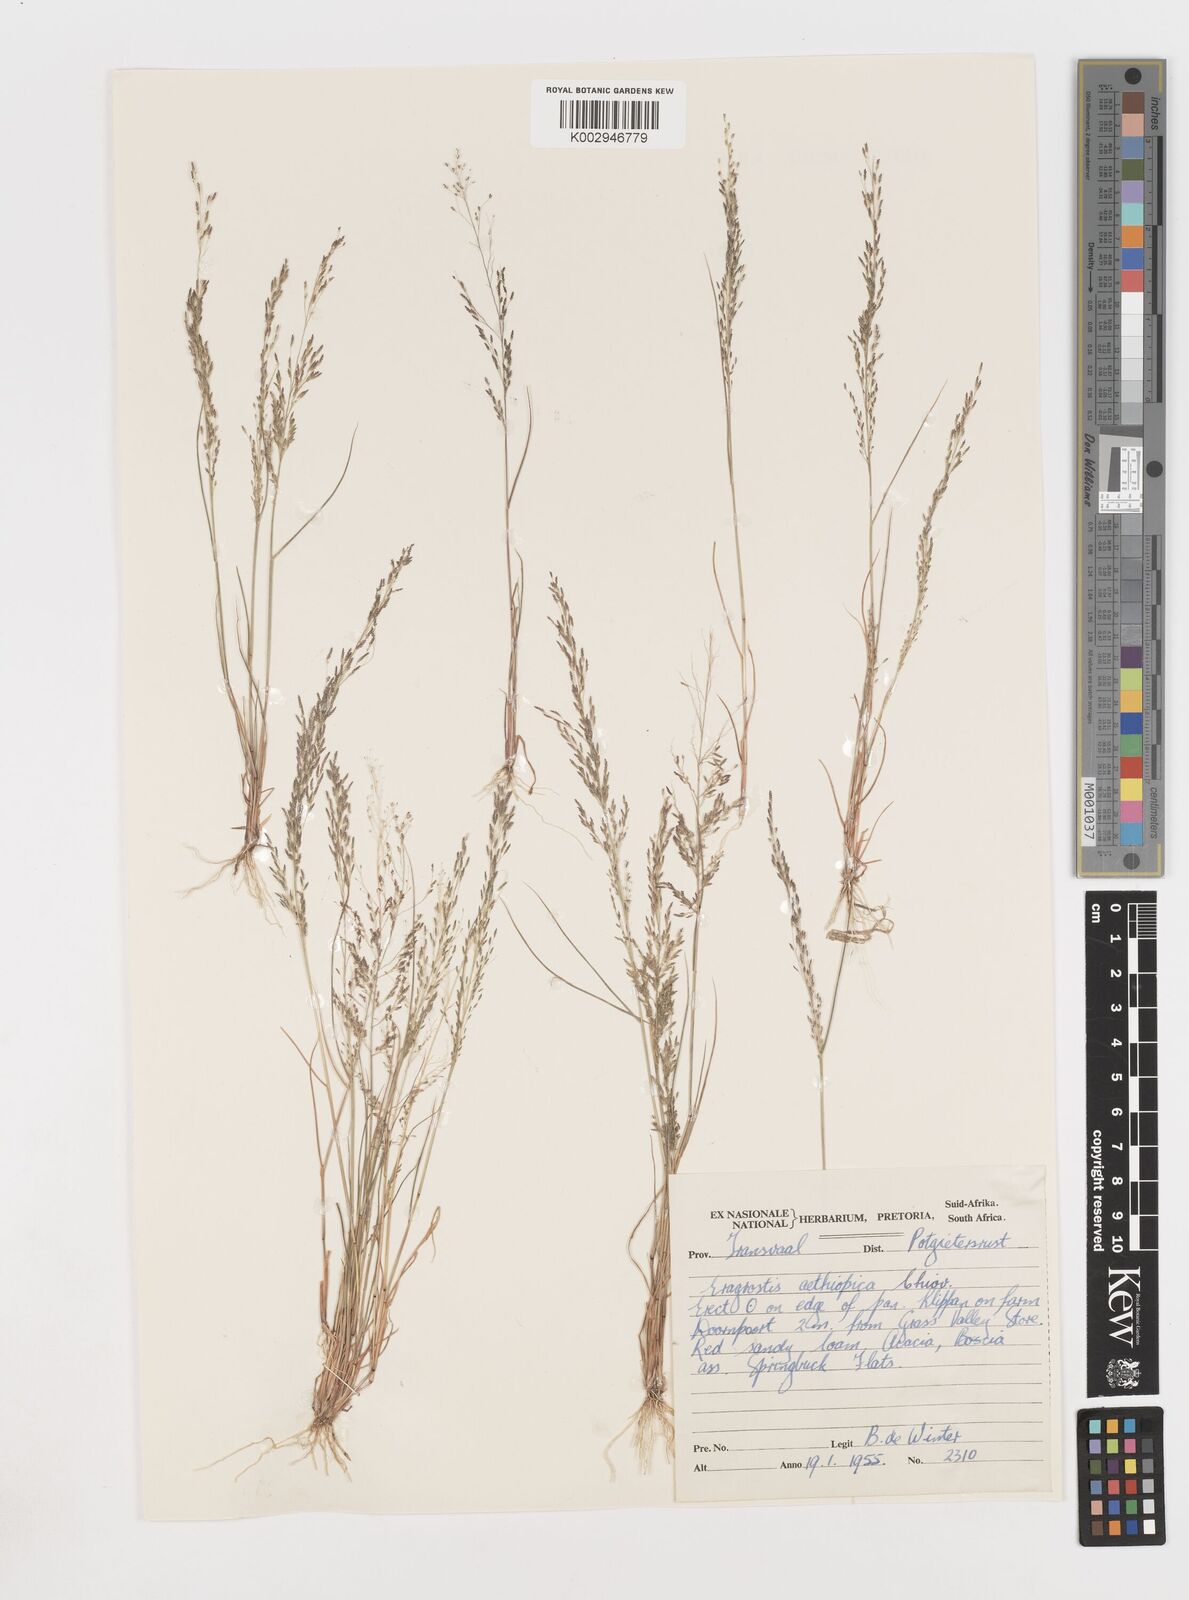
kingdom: Plantae
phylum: Tracheophyta
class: Liliopsida
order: Poales
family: Poaceae
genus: Eragrostis
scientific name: Eragrostis aethiopica
